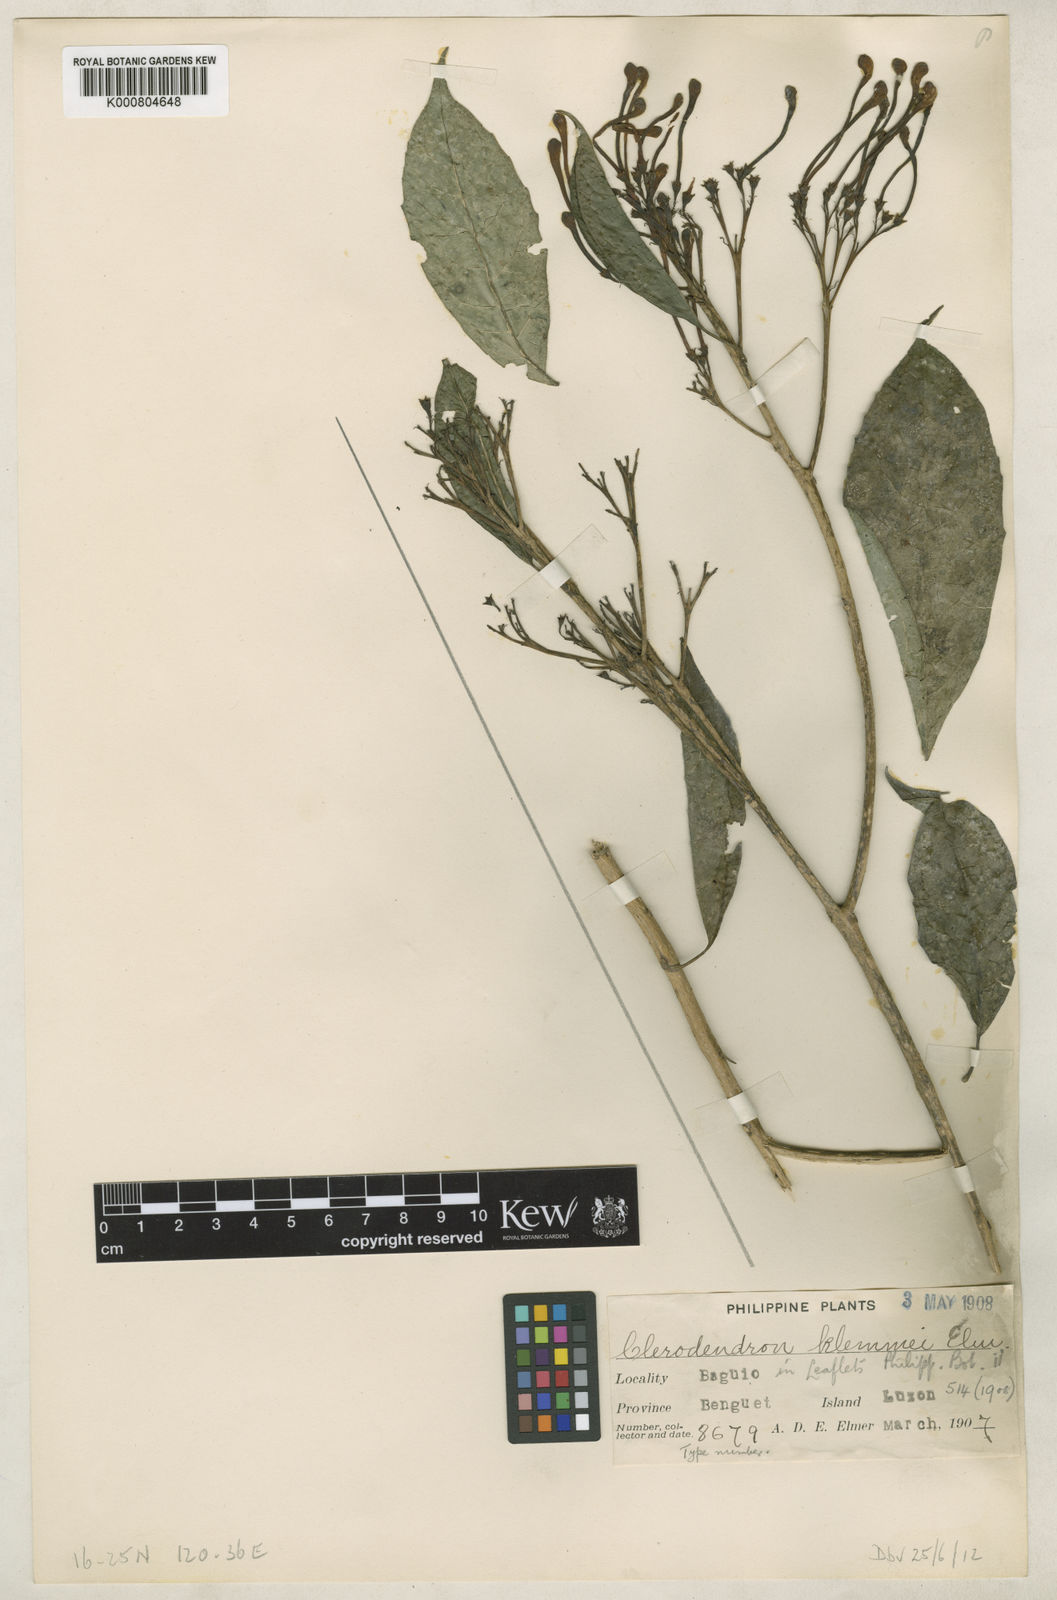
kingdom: Plantae
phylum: Tracheophyta
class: Magnoliopsida
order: Lamiales
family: Lamiaceae
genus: Clerodendrum
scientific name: Clerodendrum klemmei
